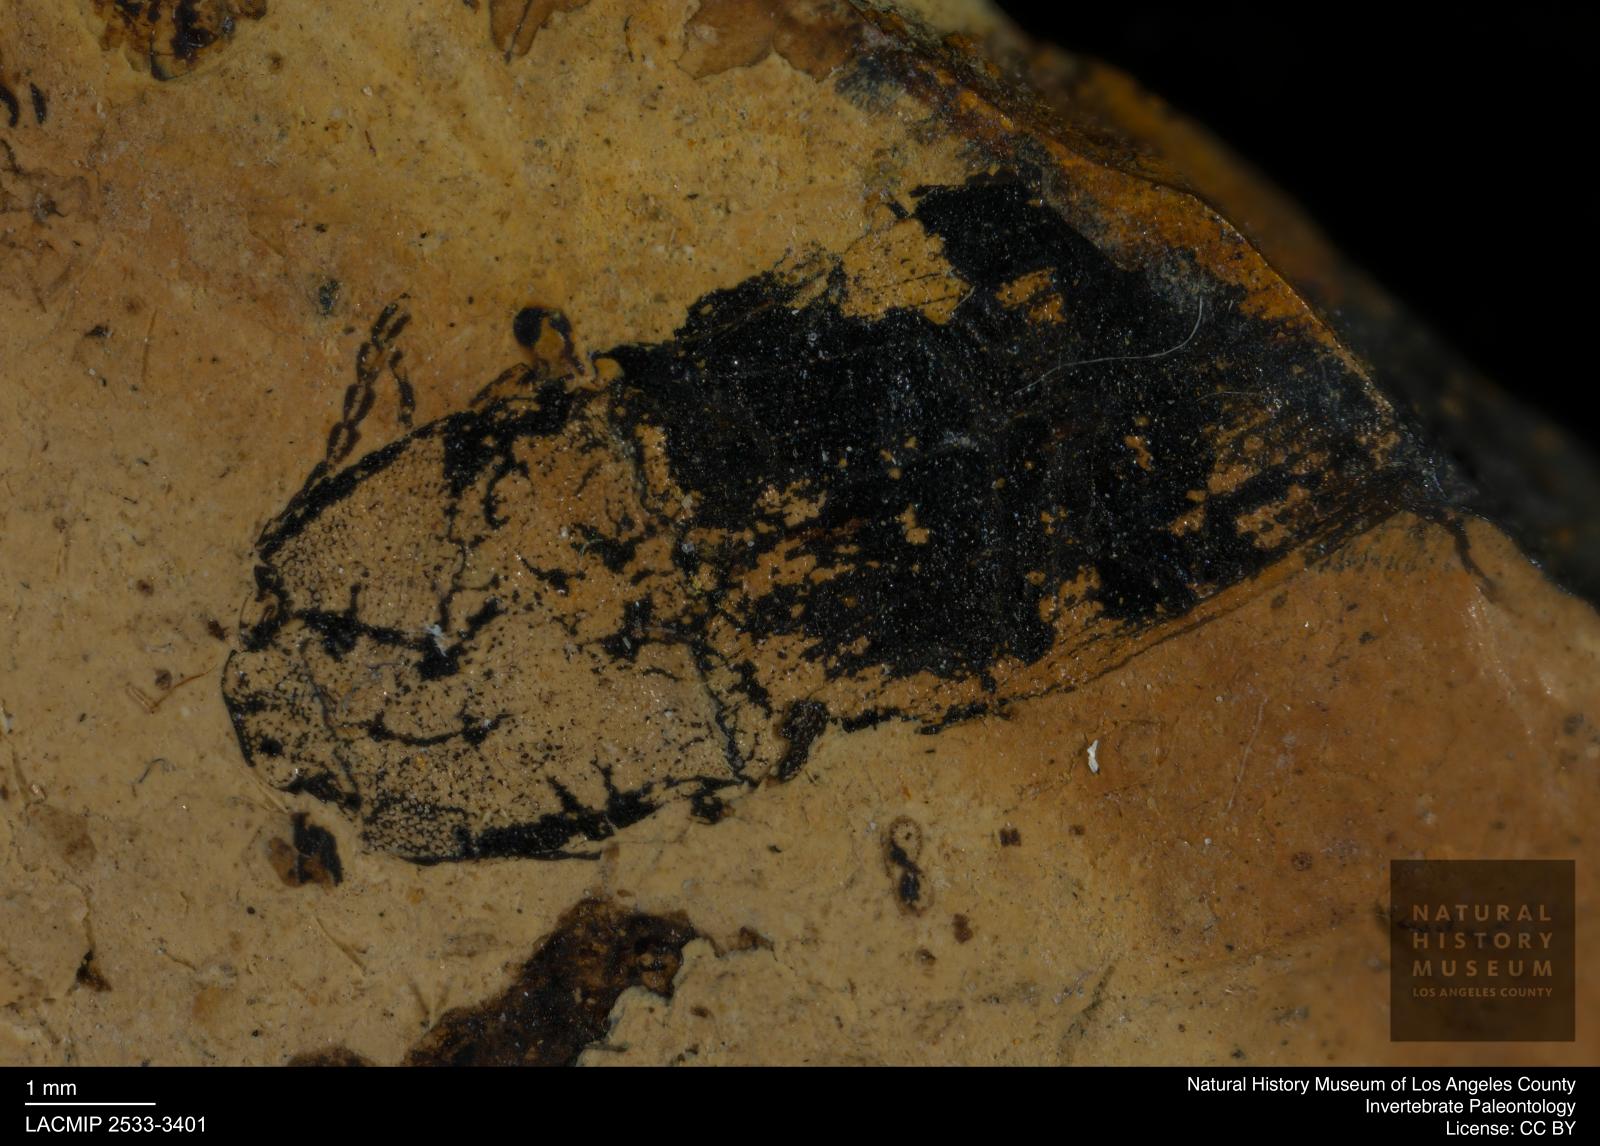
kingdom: Animalia
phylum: Arthropoda
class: Insecta
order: Coleoptera
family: Elateridae
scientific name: Elateridae
